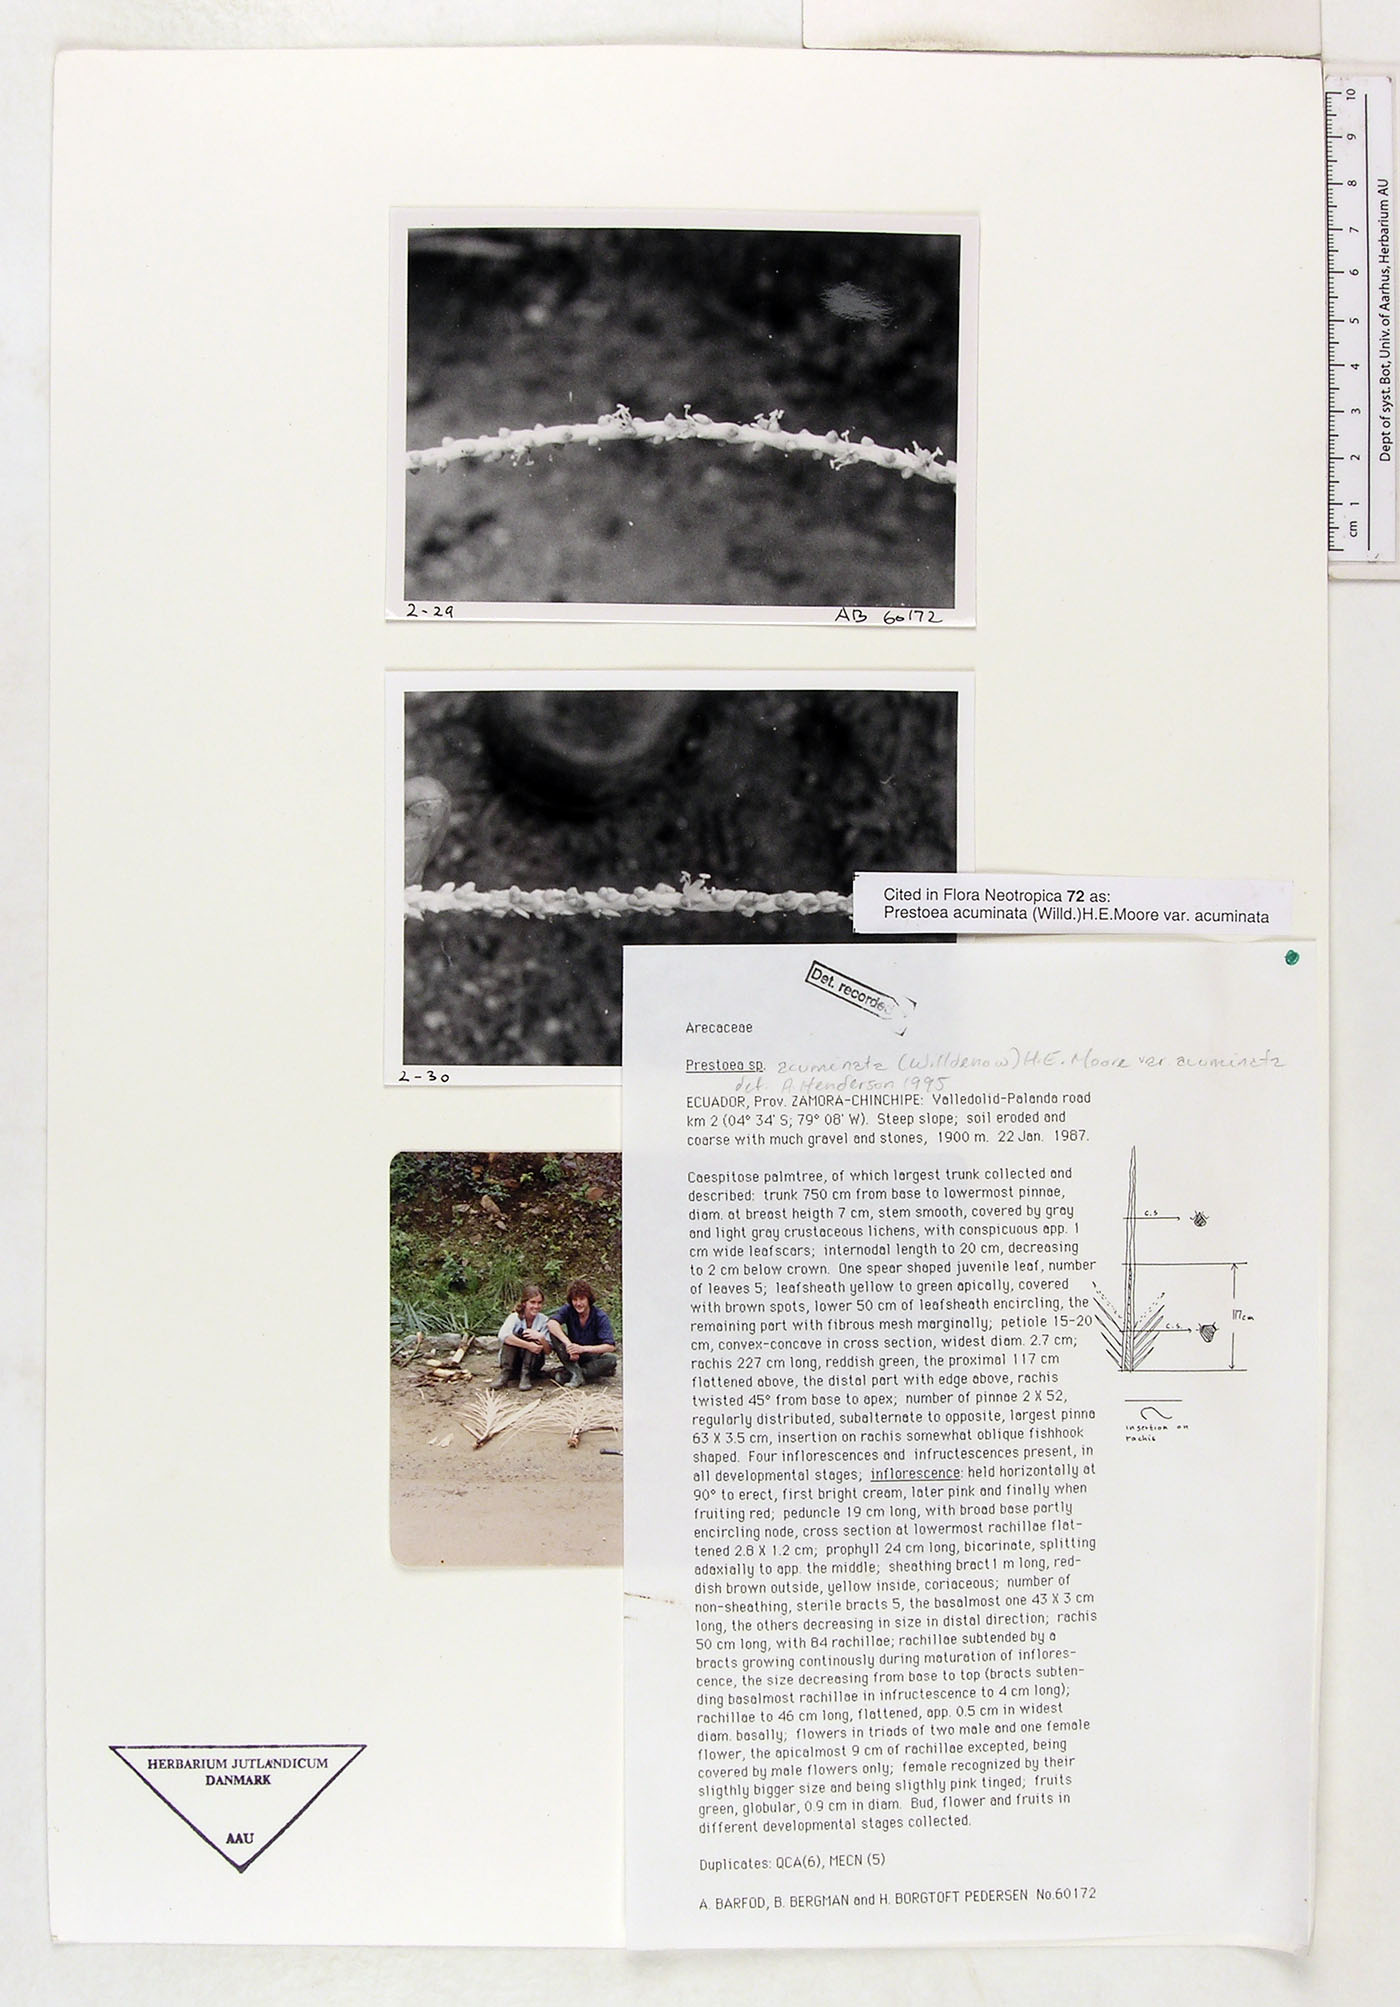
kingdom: Plantae
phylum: Tracheophyta
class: Liliopsida
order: Arecales
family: Arecaceae
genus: Prestoea
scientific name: Prestoea acuminata
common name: Sierran palm
